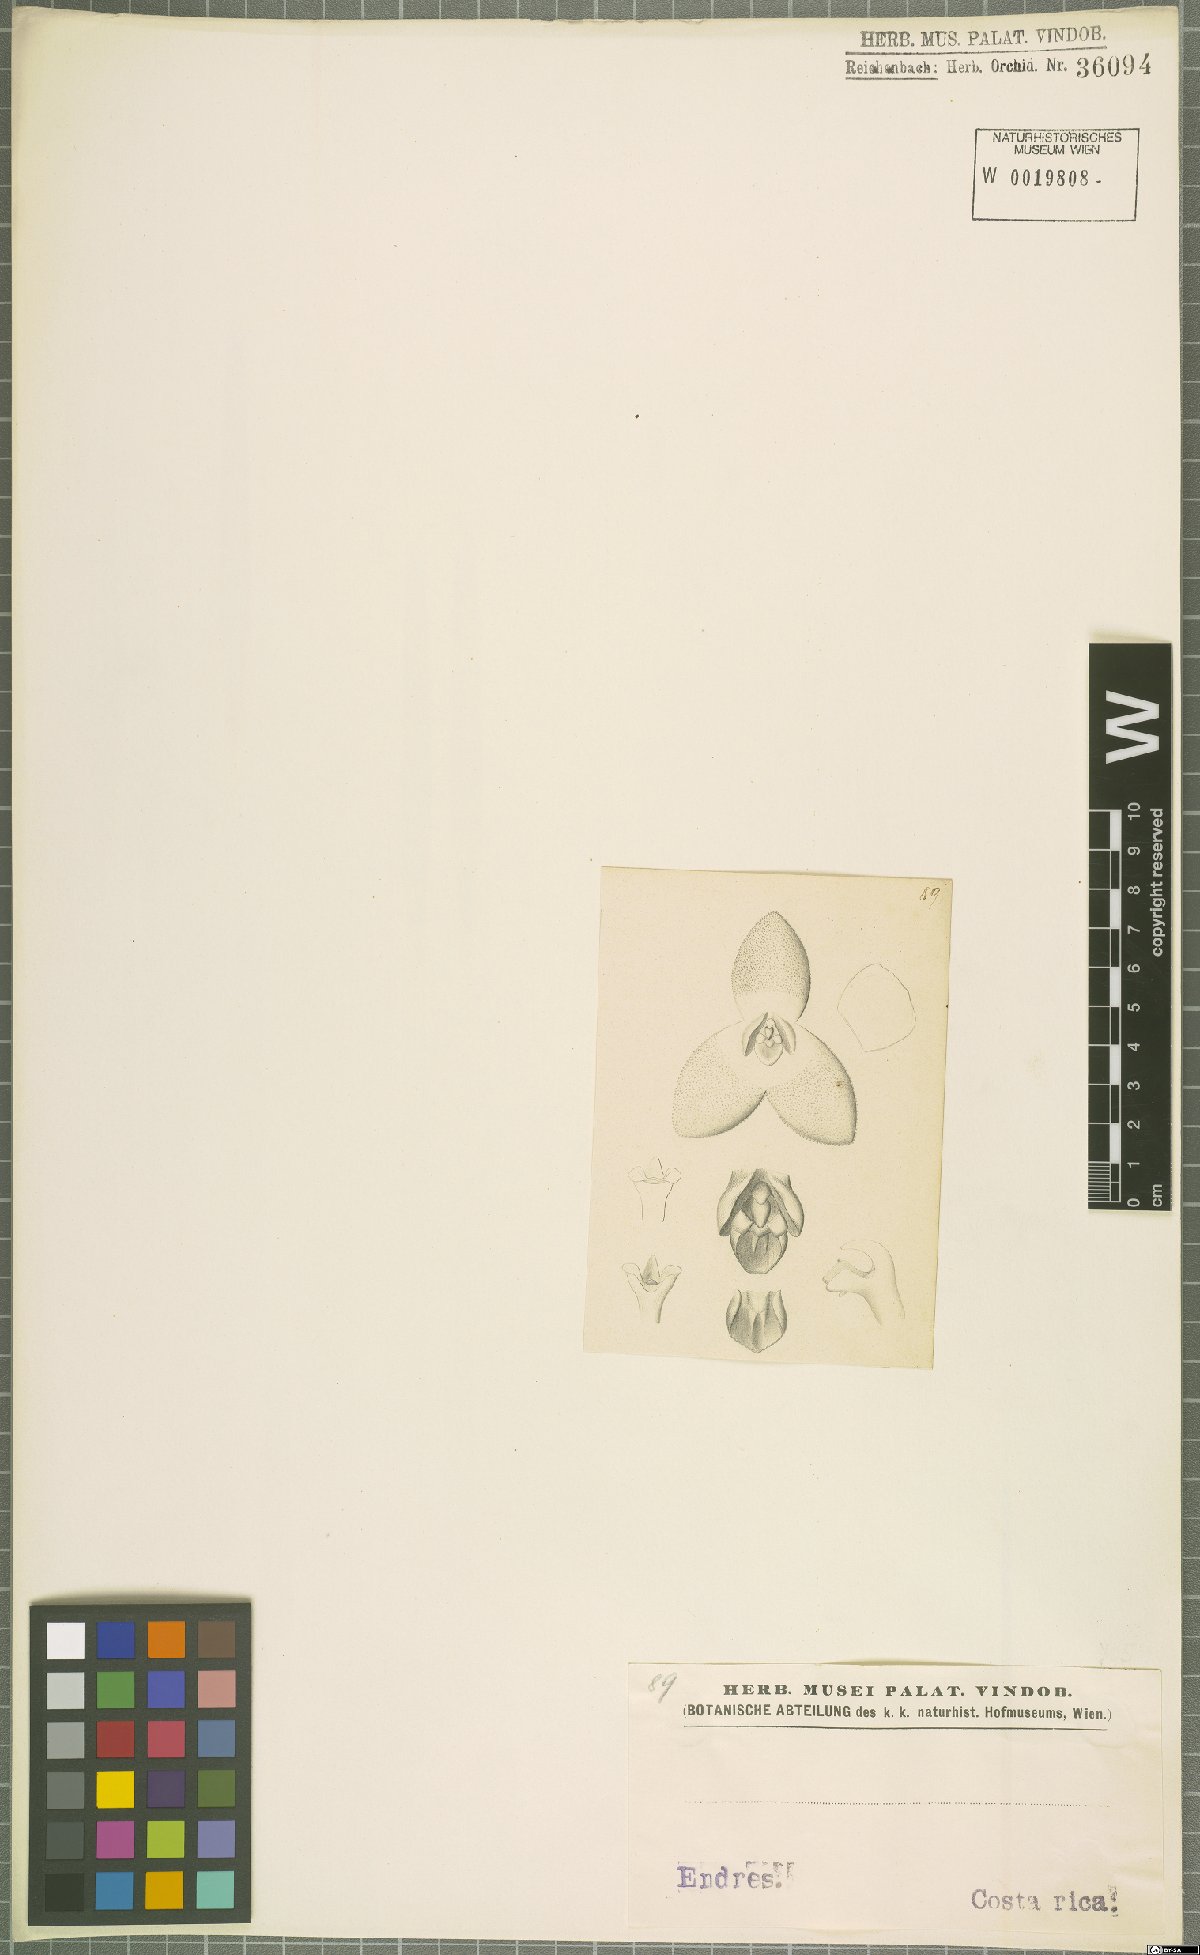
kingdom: Plantae
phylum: Tracheophyta
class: Liliopsida
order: Asparagales
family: Orchidaceae
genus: Stelis
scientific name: Stelis
